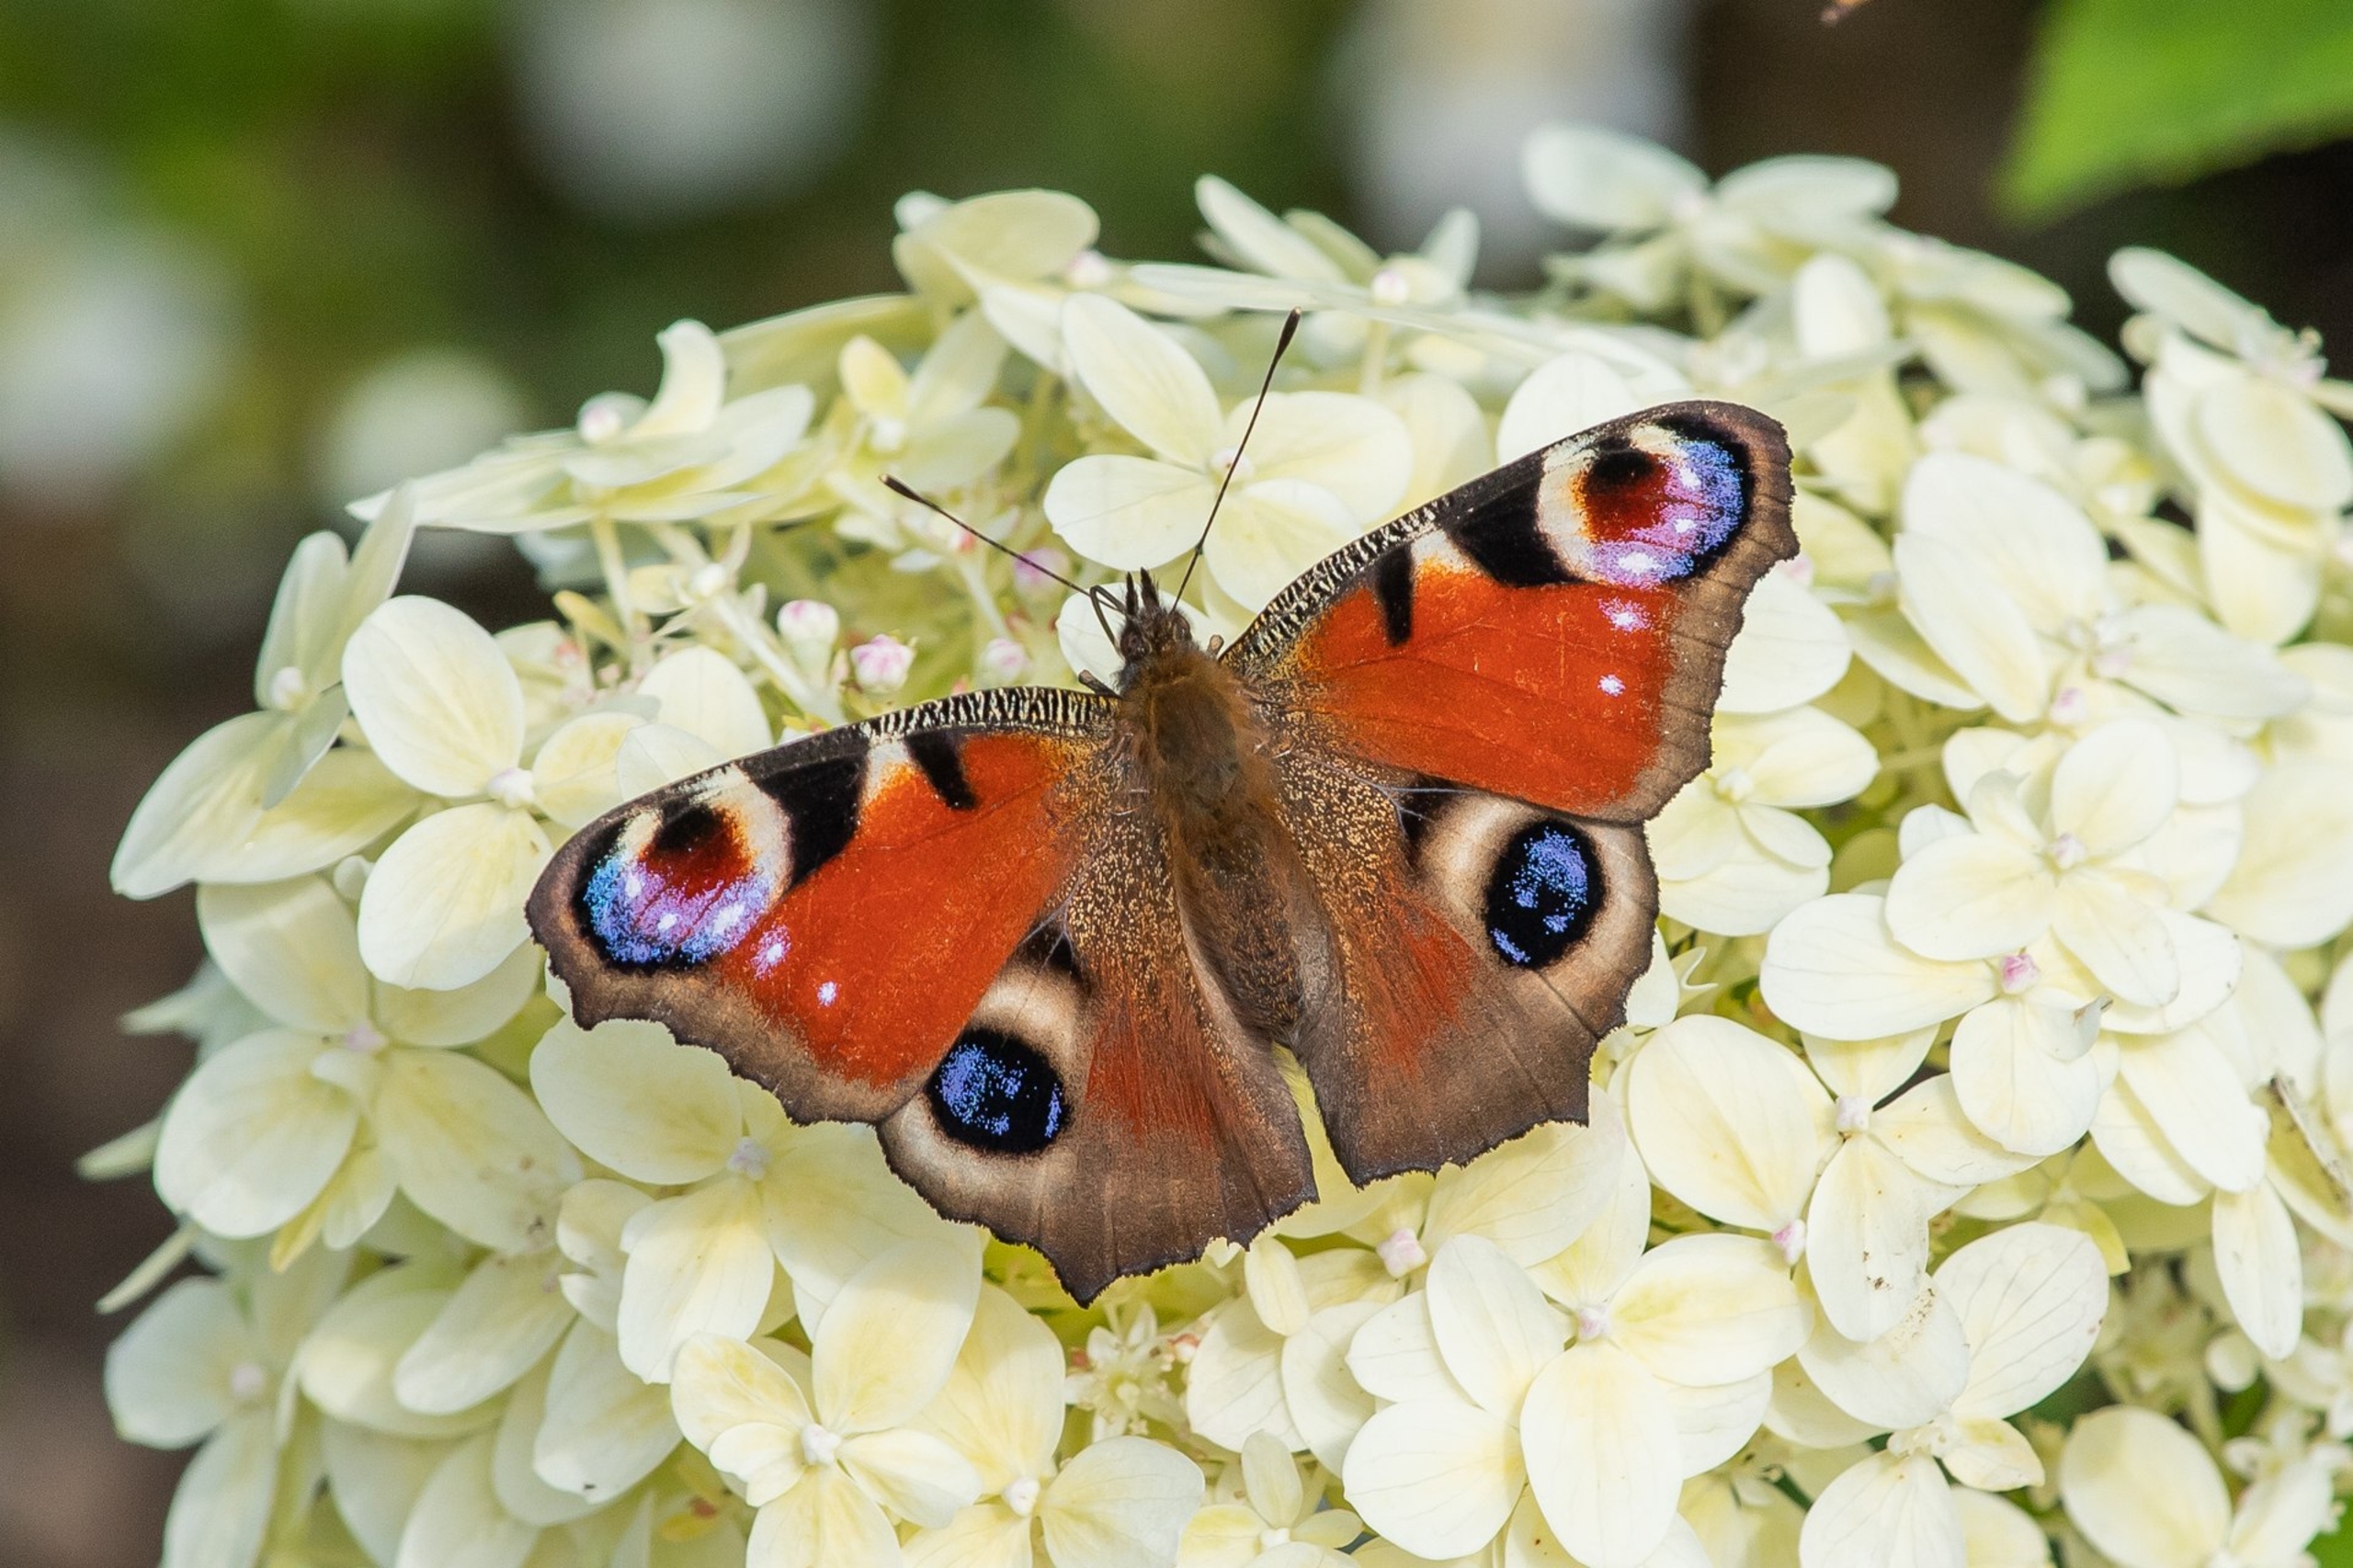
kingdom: Animalia
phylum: Arthropoda
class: Insecta
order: Lepidoptera
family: Nymphalidae
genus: Aglais
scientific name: Aglais io
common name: Dagpåfugleøje
